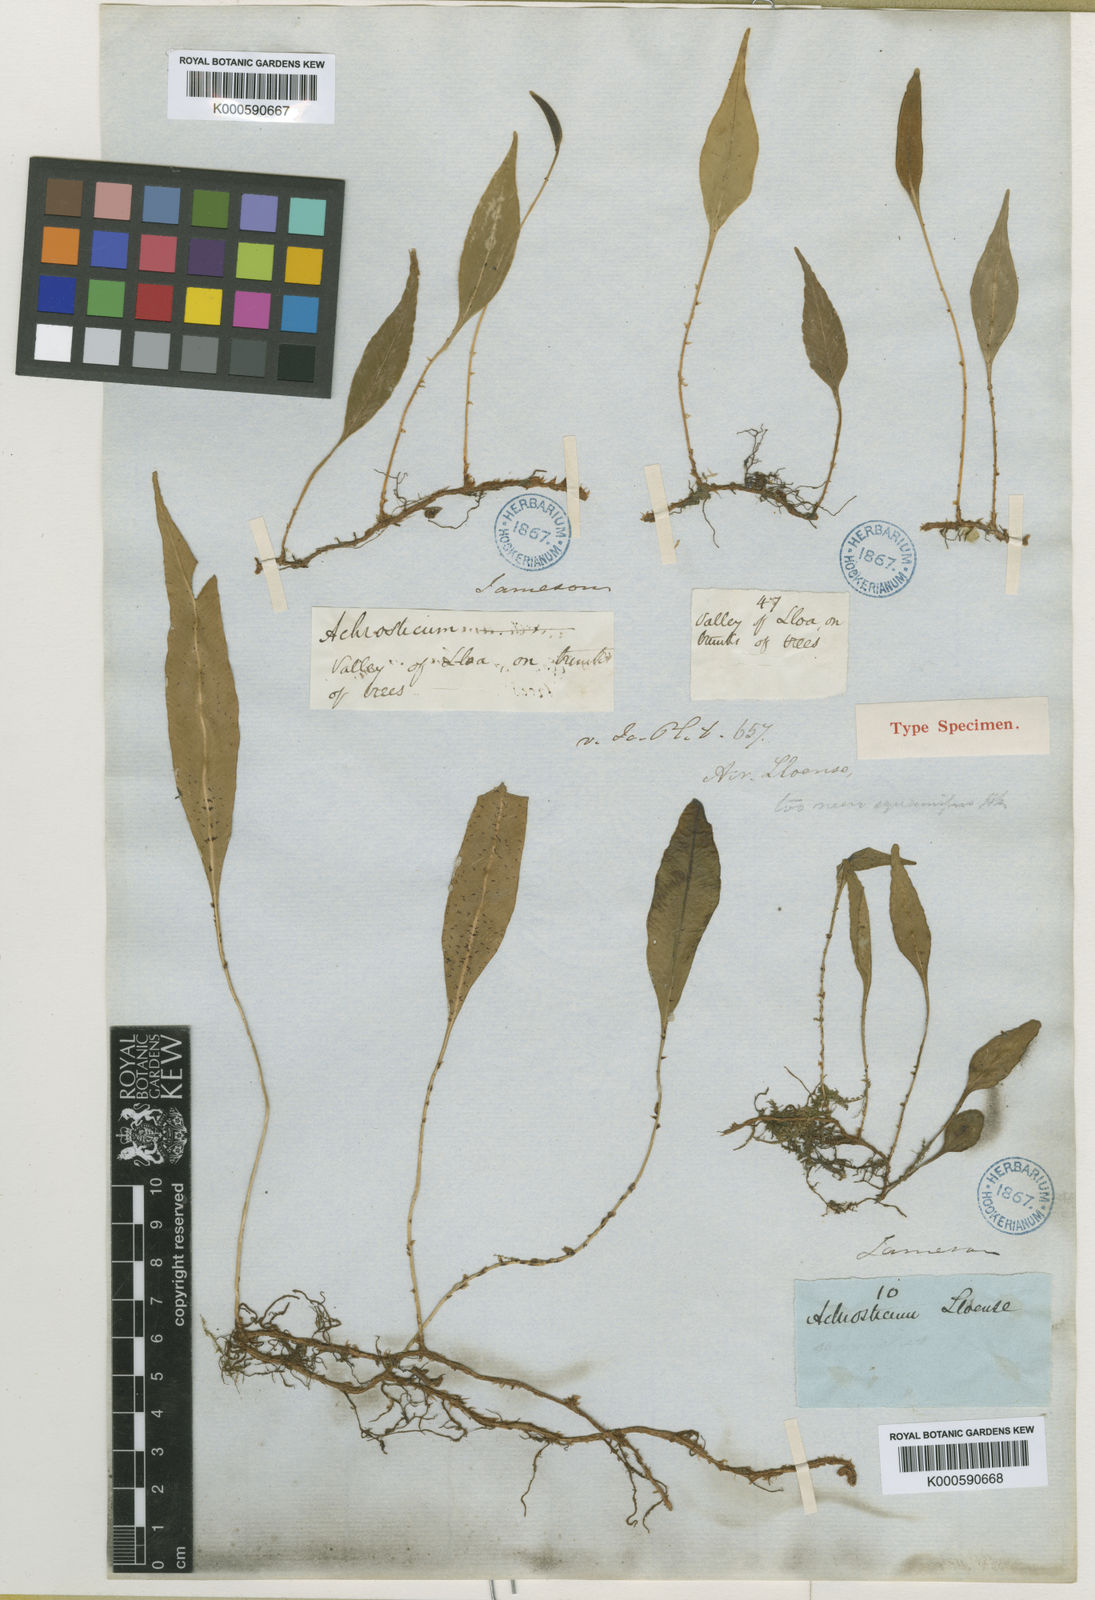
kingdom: Plantae
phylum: Tracheophyta
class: Polypodiopsida
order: Polypodiales
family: Dryopteridaceae
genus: Elaphoglossum
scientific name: Elaphoglossum lloense
